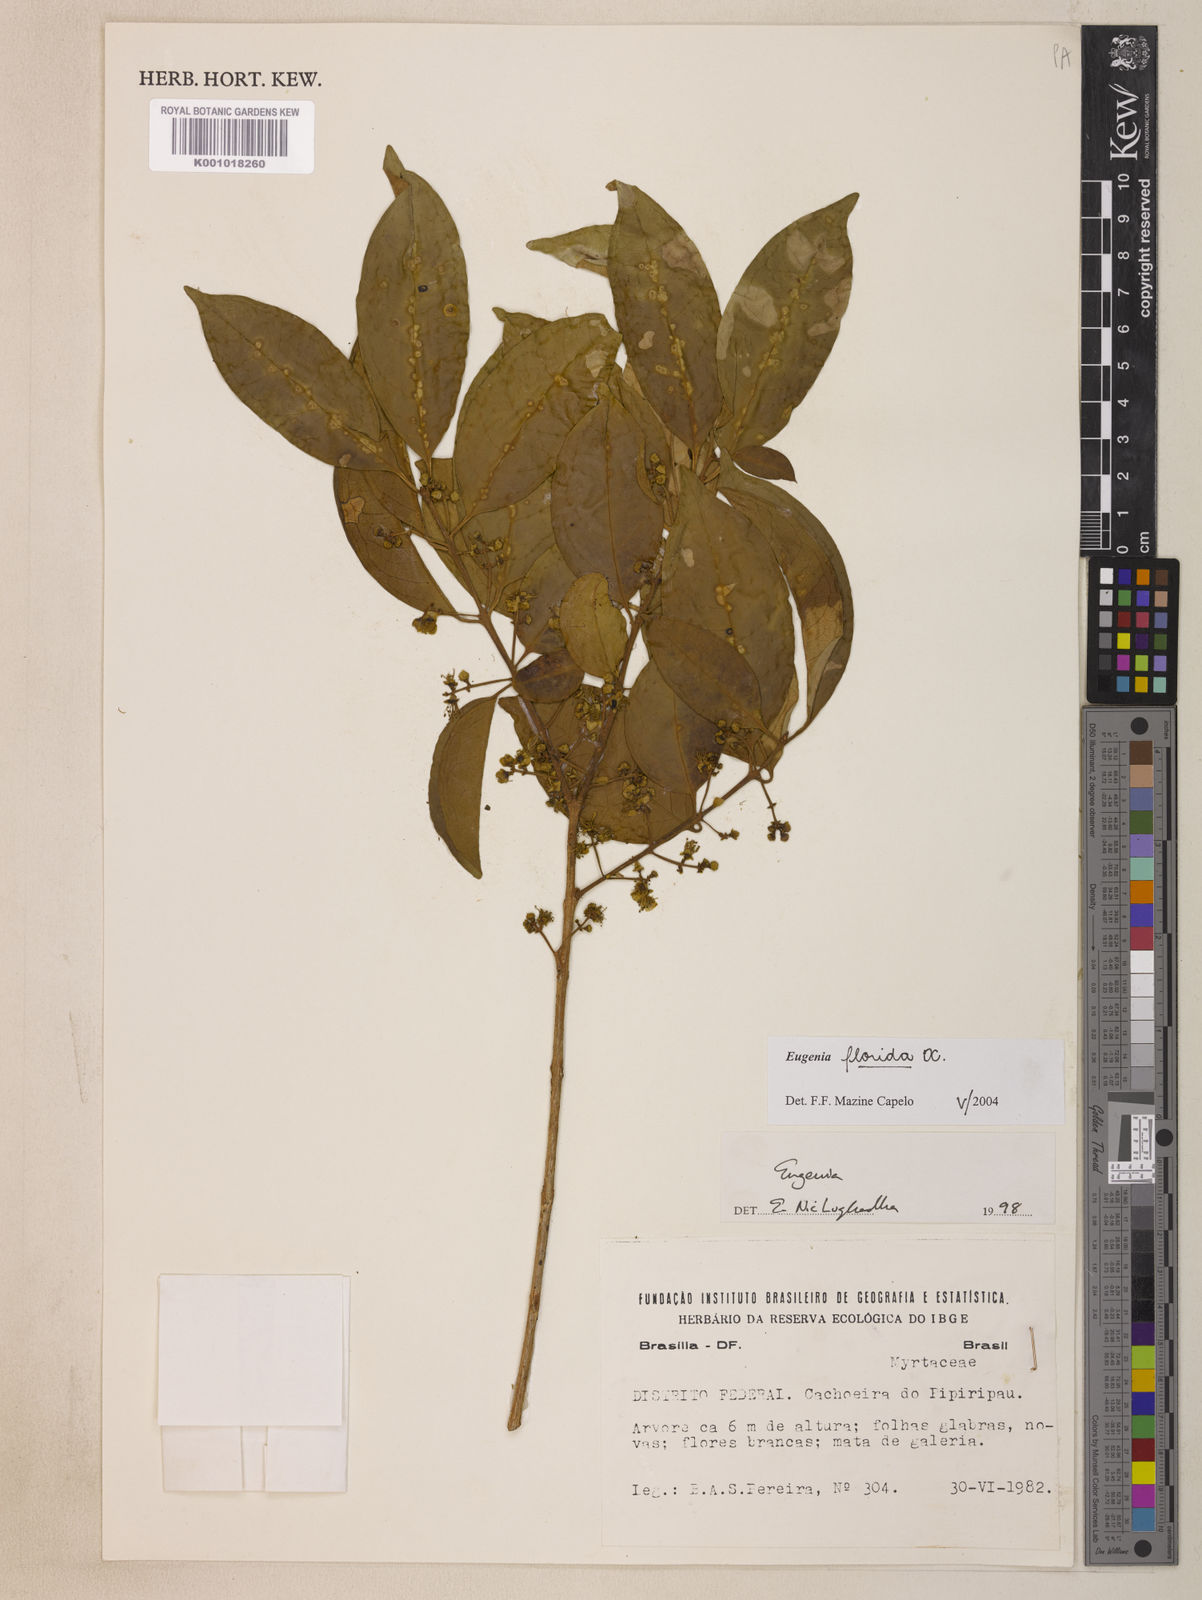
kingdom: Plantae
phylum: Tracheophyta
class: Magnoliopsida
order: Myrtales
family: Myrtaceae
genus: Eugenia
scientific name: Eugenia florida
